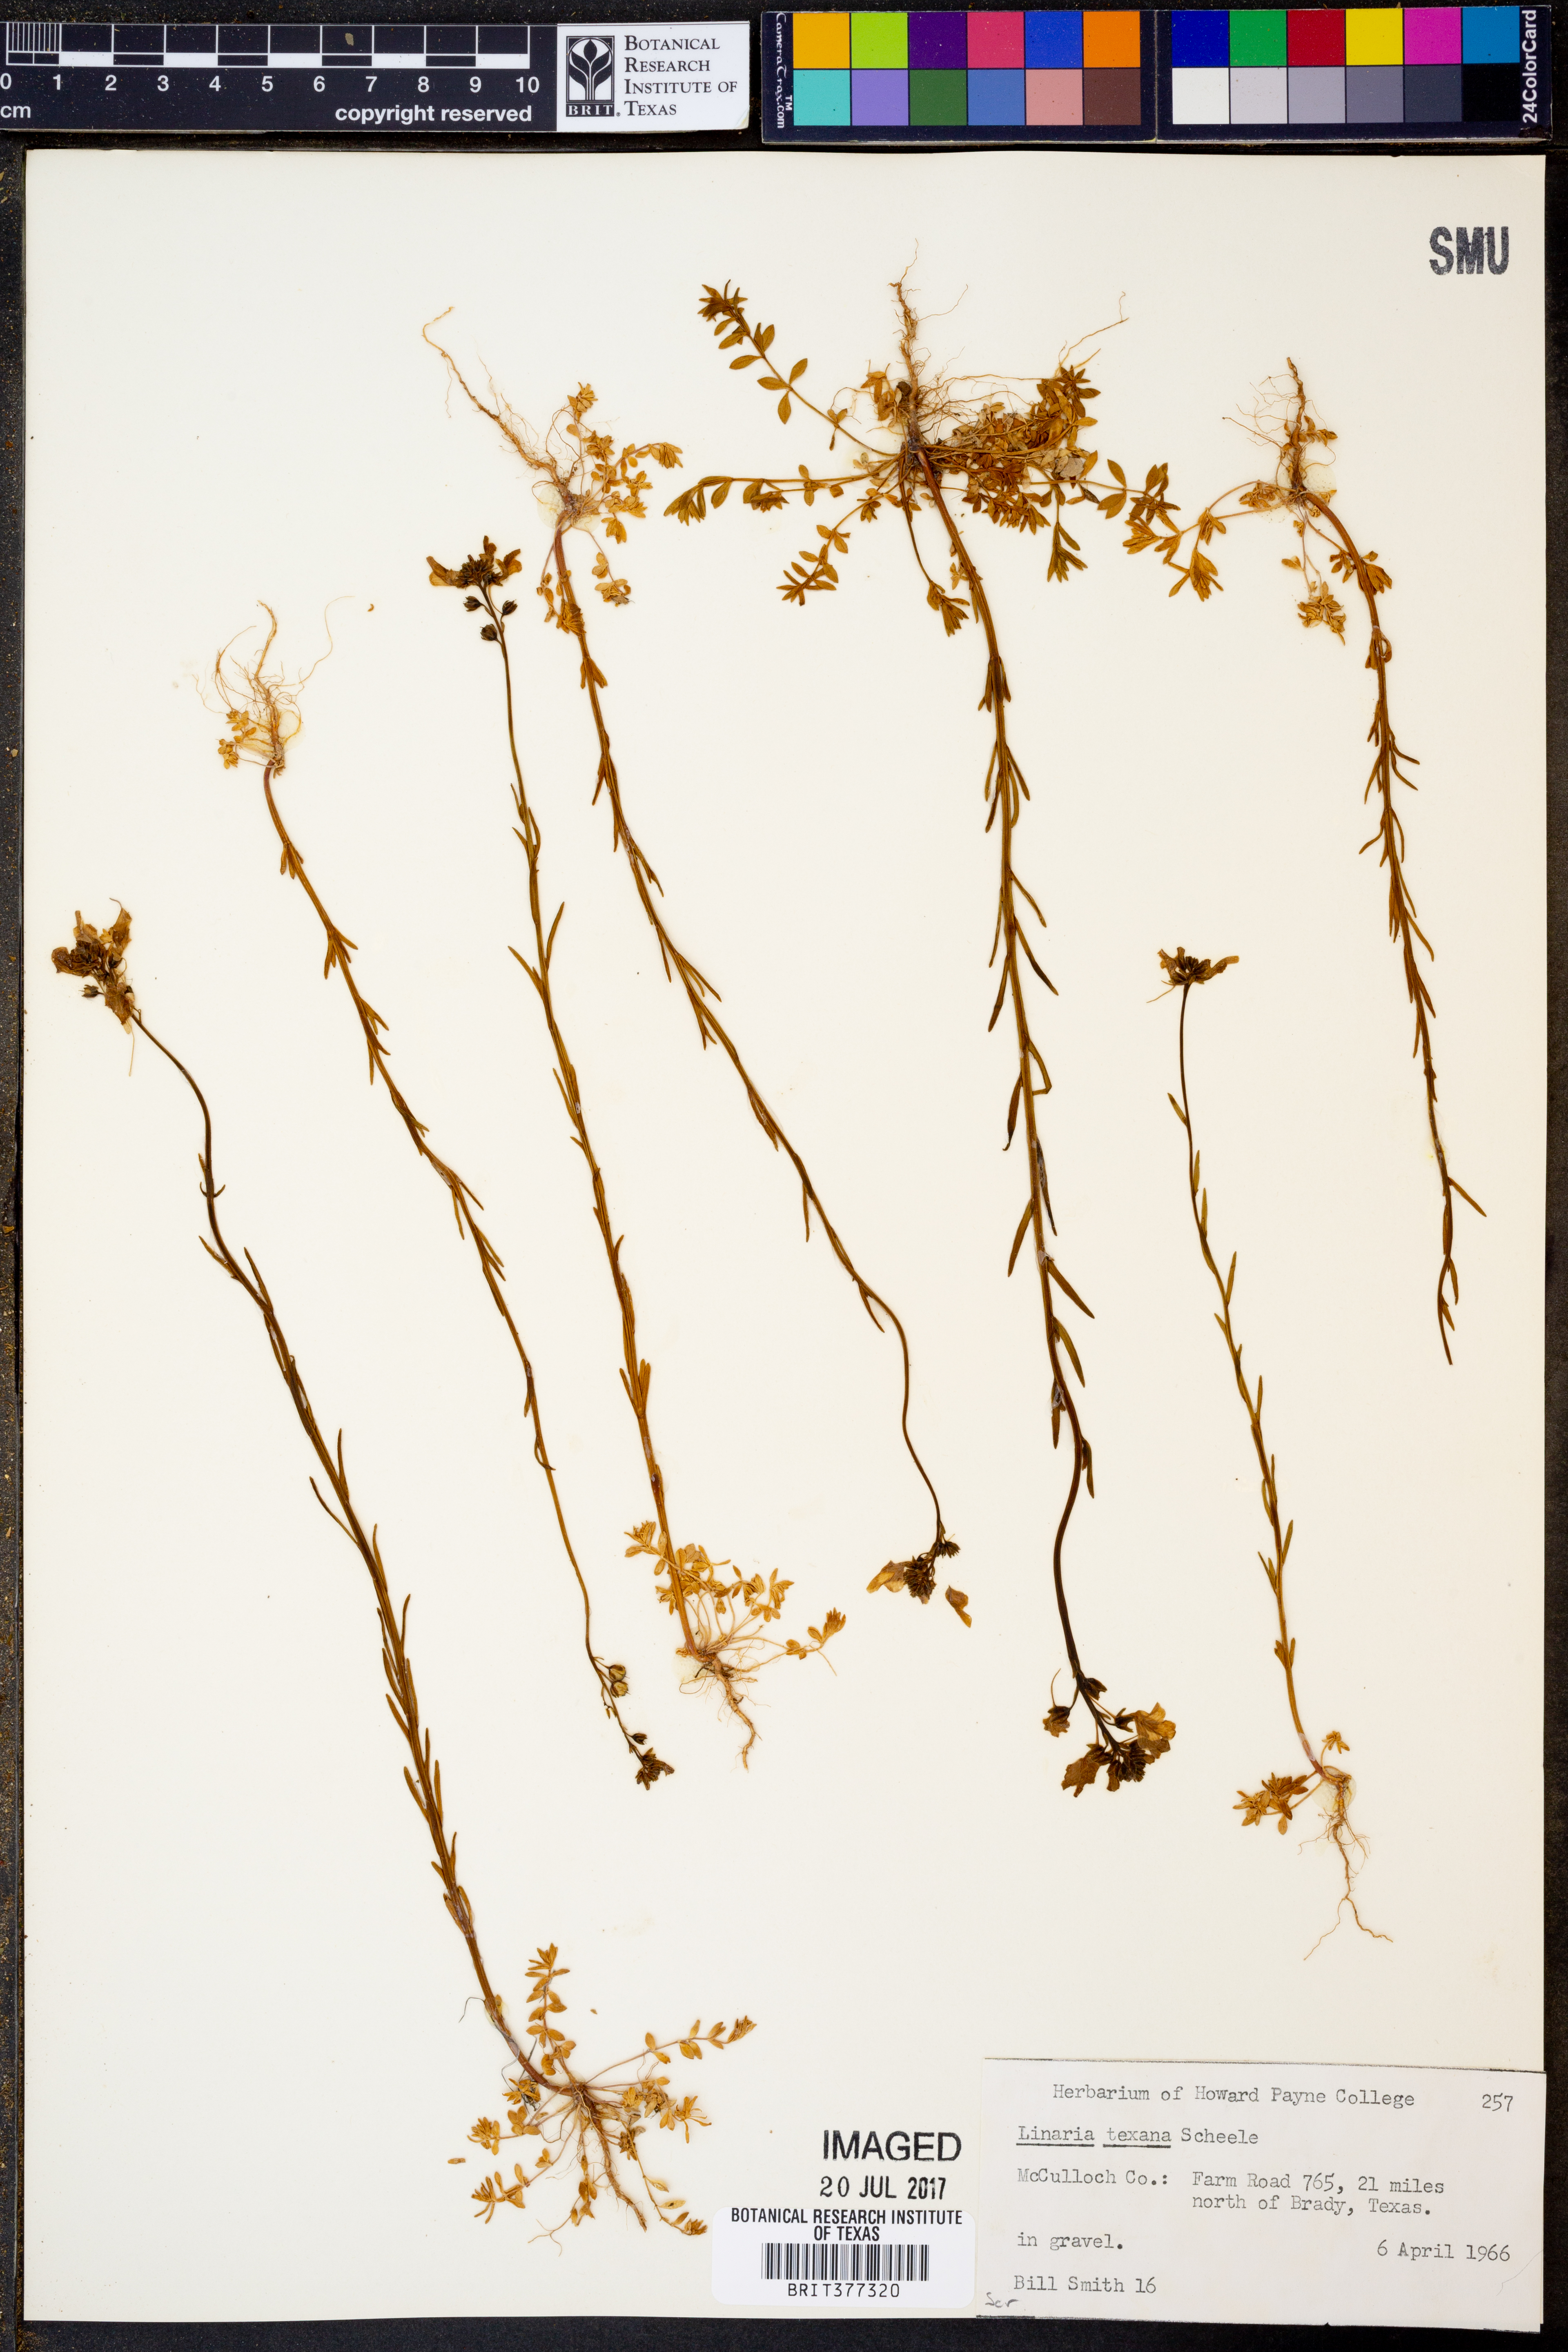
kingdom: Plantae
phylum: Tracheophyta
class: Magnoliopsida
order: Lamiales
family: Plantaginaceae
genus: Nuttallanthus
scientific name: Nuttallanthus texanus
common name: Texas toadflax
